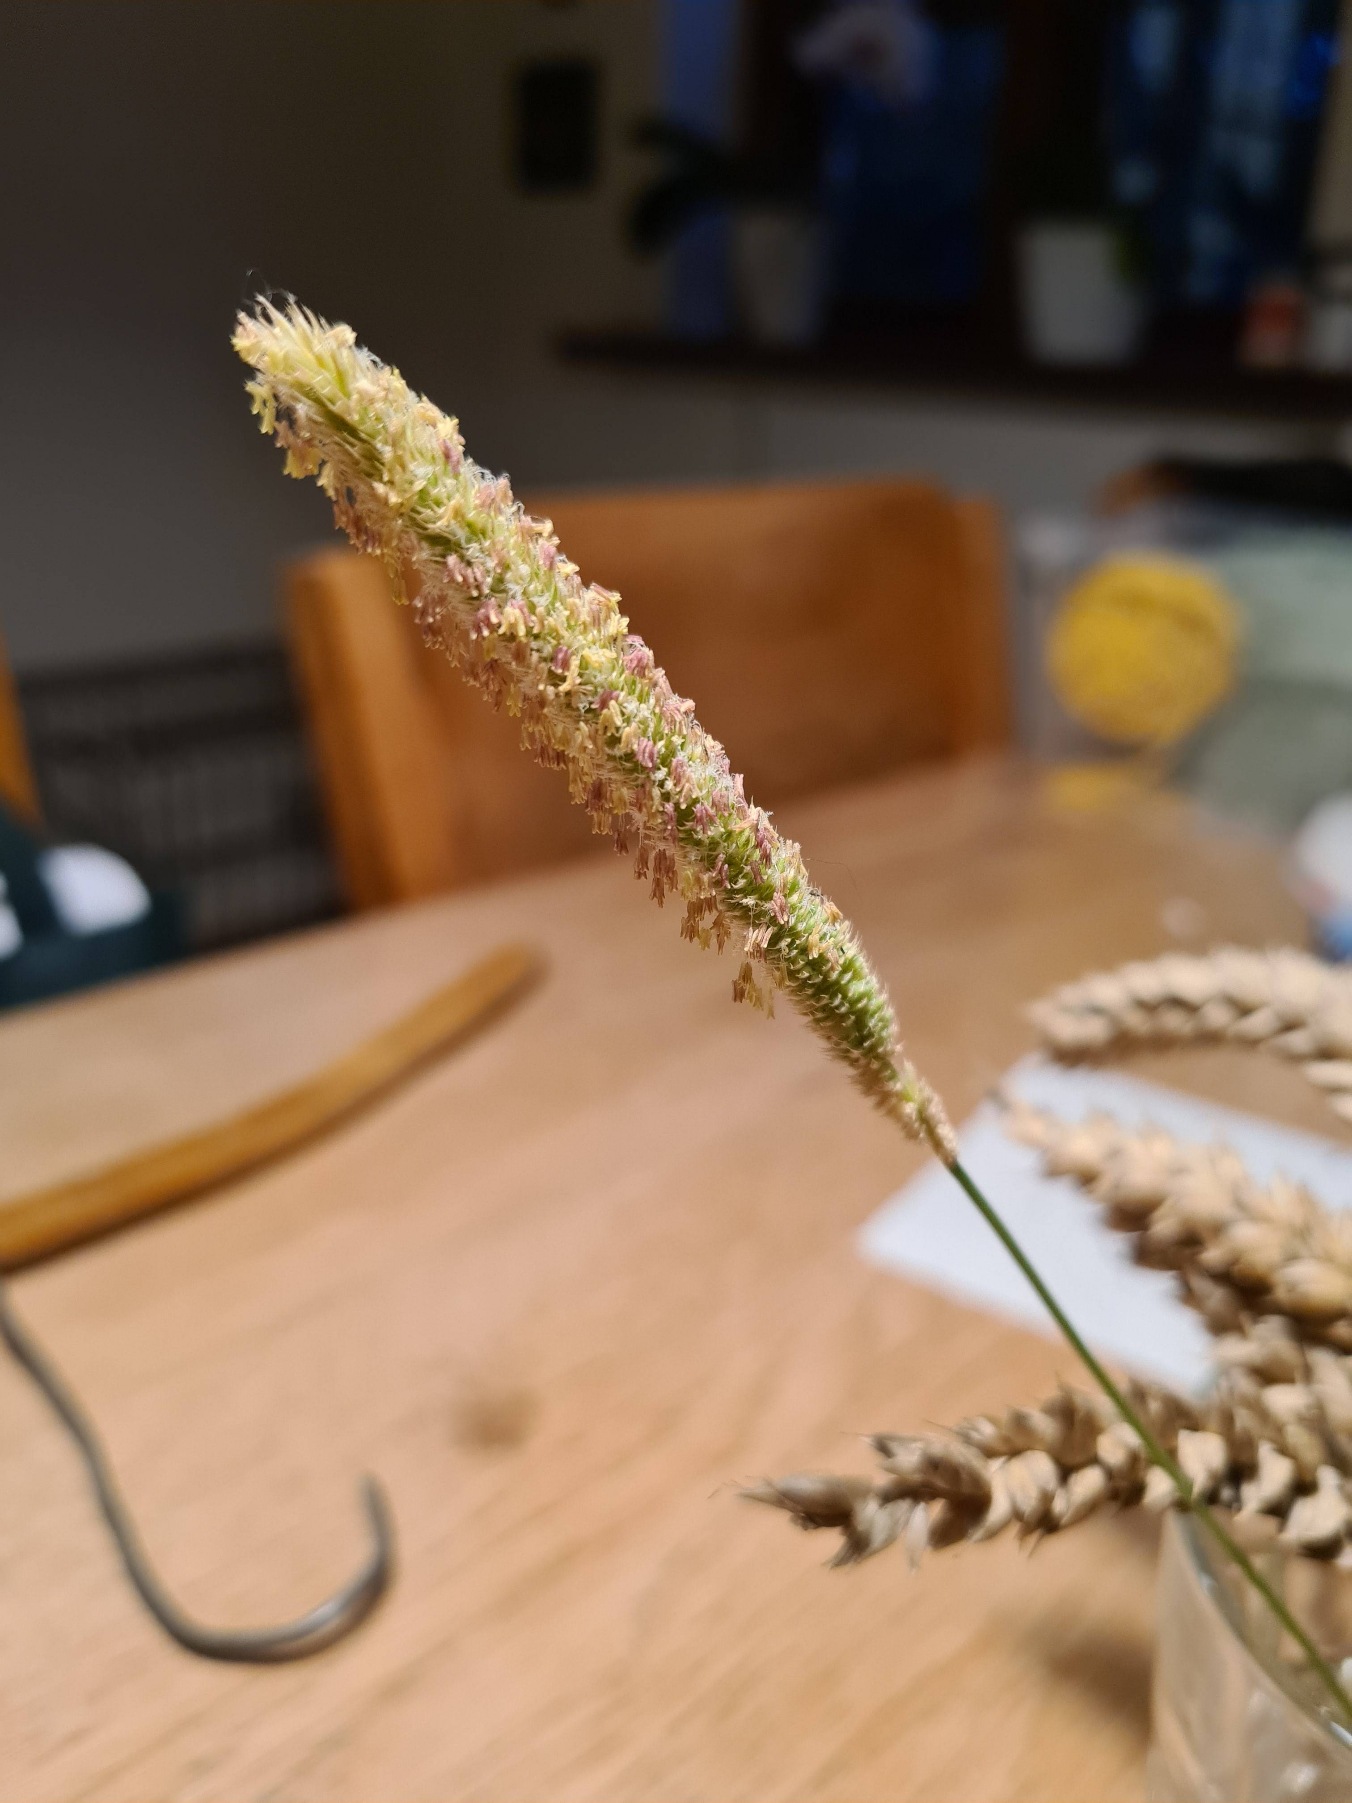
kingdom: Plantae
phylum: Tracheophyta
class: Liliopsida
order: Poales
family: Poaceae
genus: Phleum
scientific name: Phleum pratense
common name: Eng-rottehale
